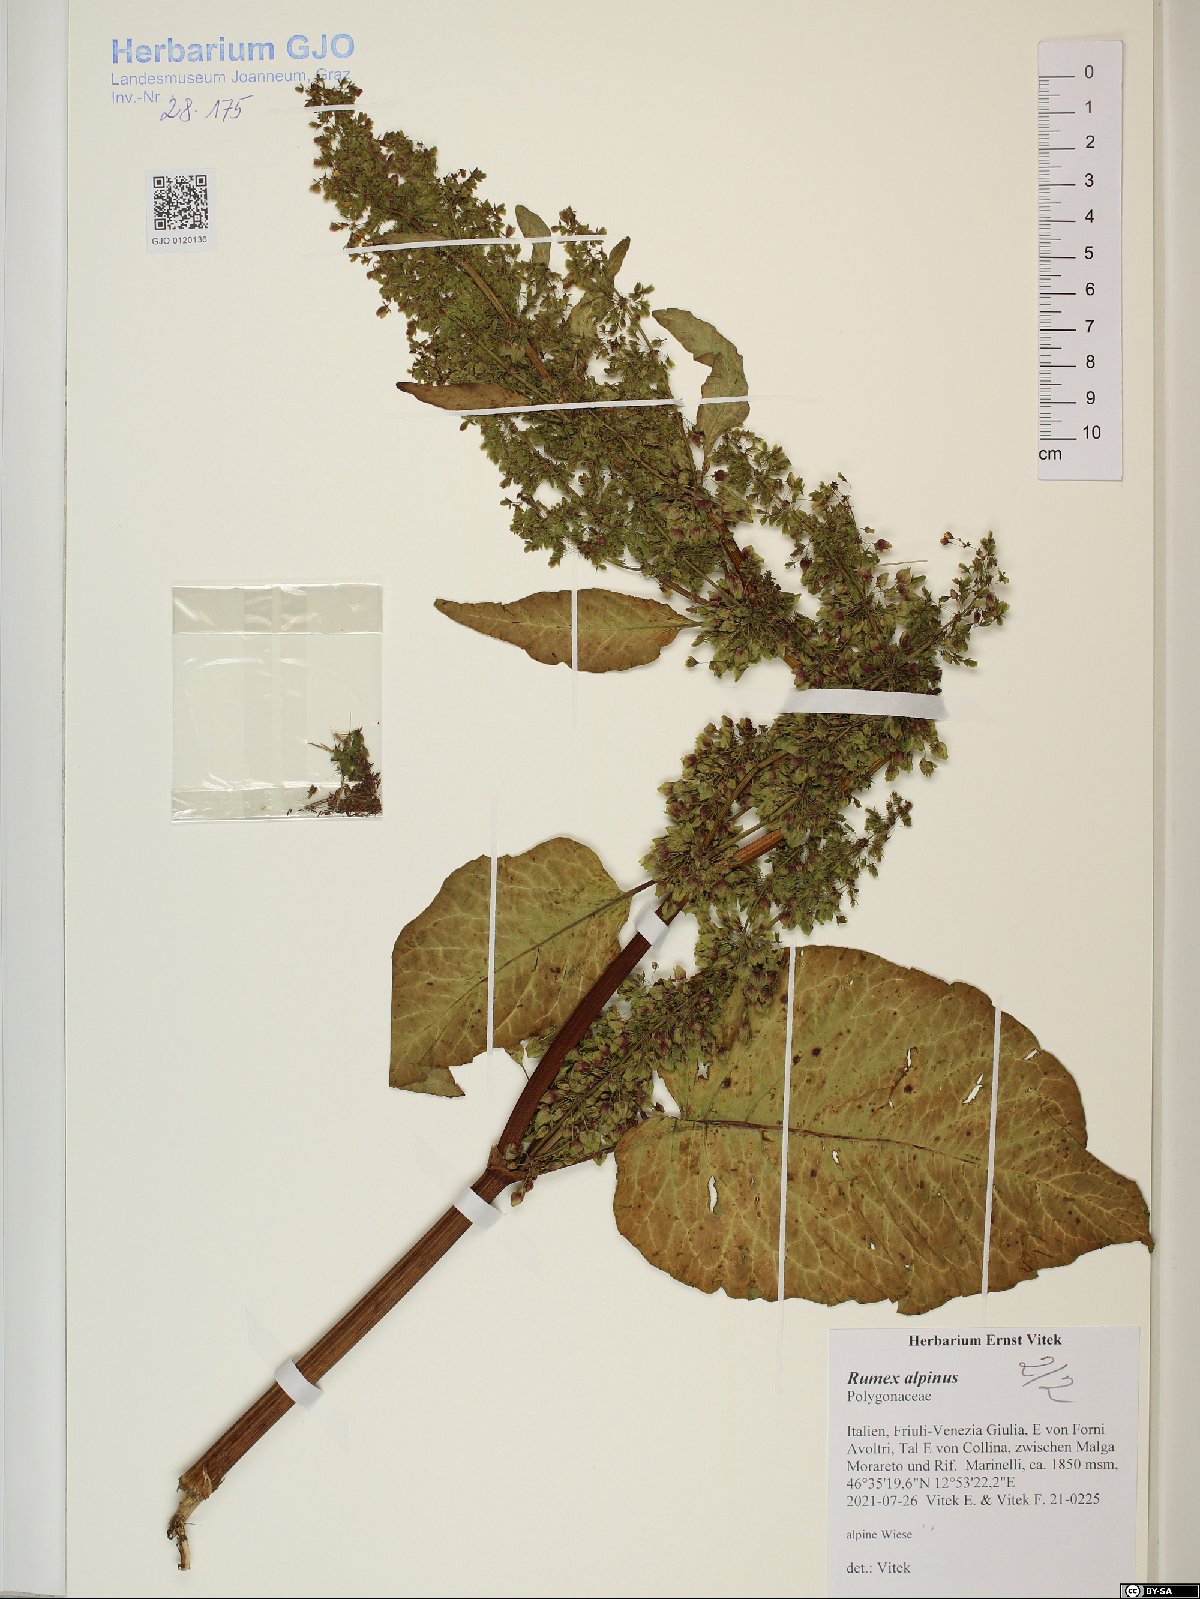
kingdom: Plantae
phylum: Tracheophyta
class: Magnoliopsida
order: Caryophyllales
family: Polygonaceae
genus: Rumex
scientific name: Rumex alpinus
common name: Alpine dock
